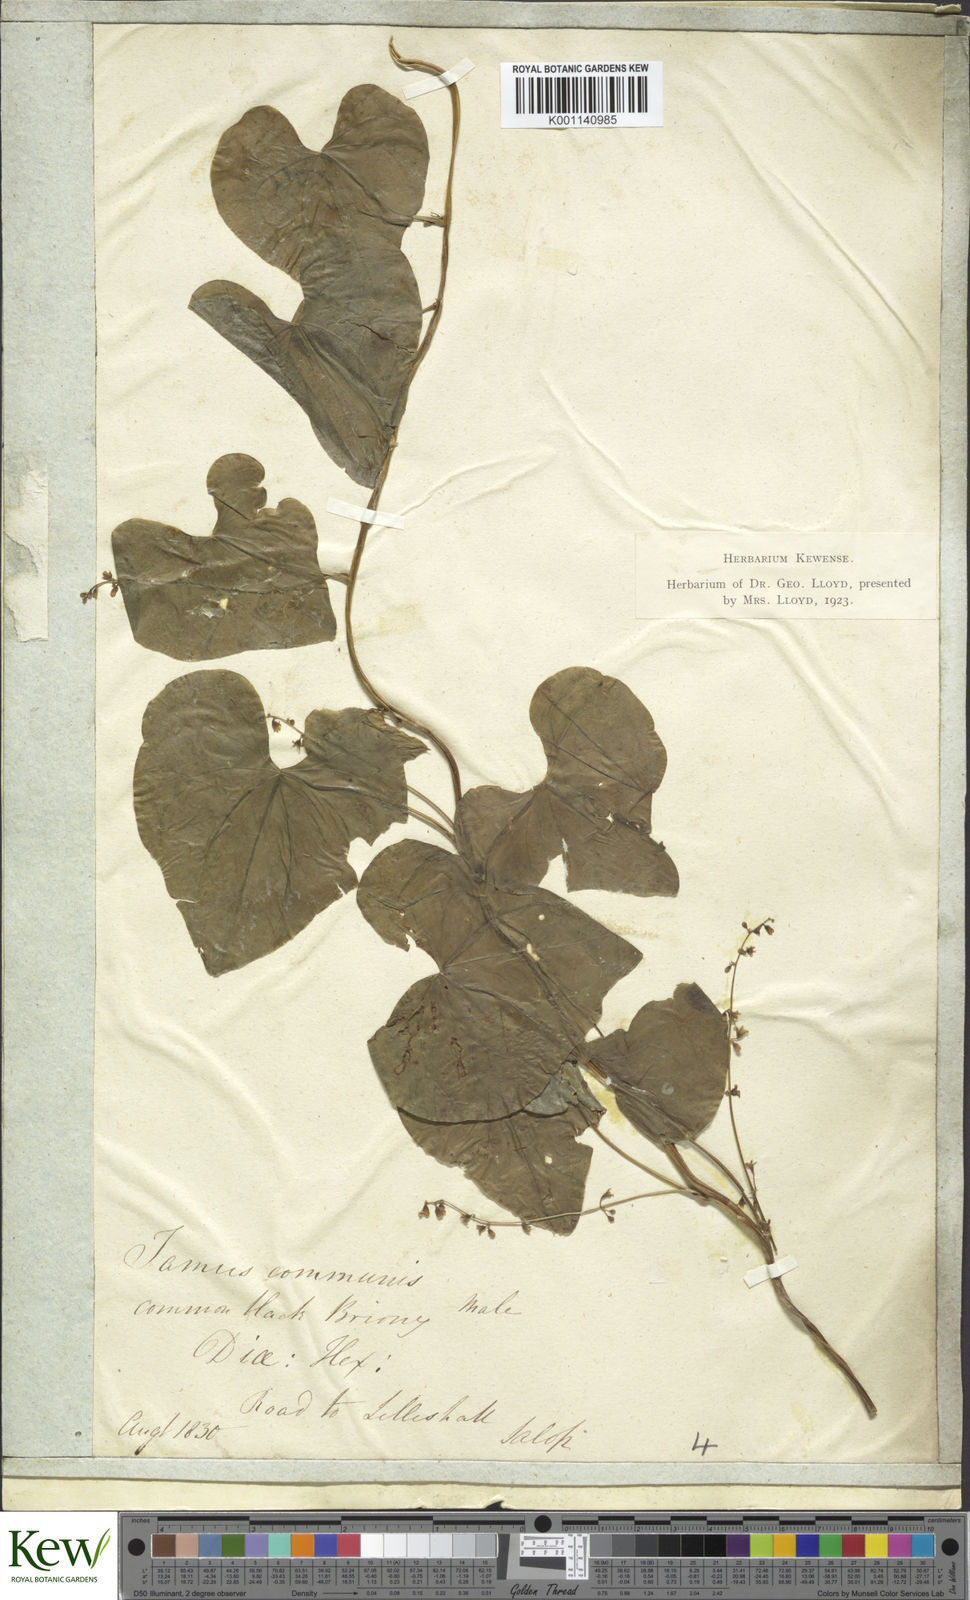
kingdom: Plantae
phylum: Tracheophyta
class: Liliopsida
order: Dioscoreales
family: Dioscoreaceae
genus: Dioscorea
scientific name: Dioscorea communis
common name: Black-bindweed
